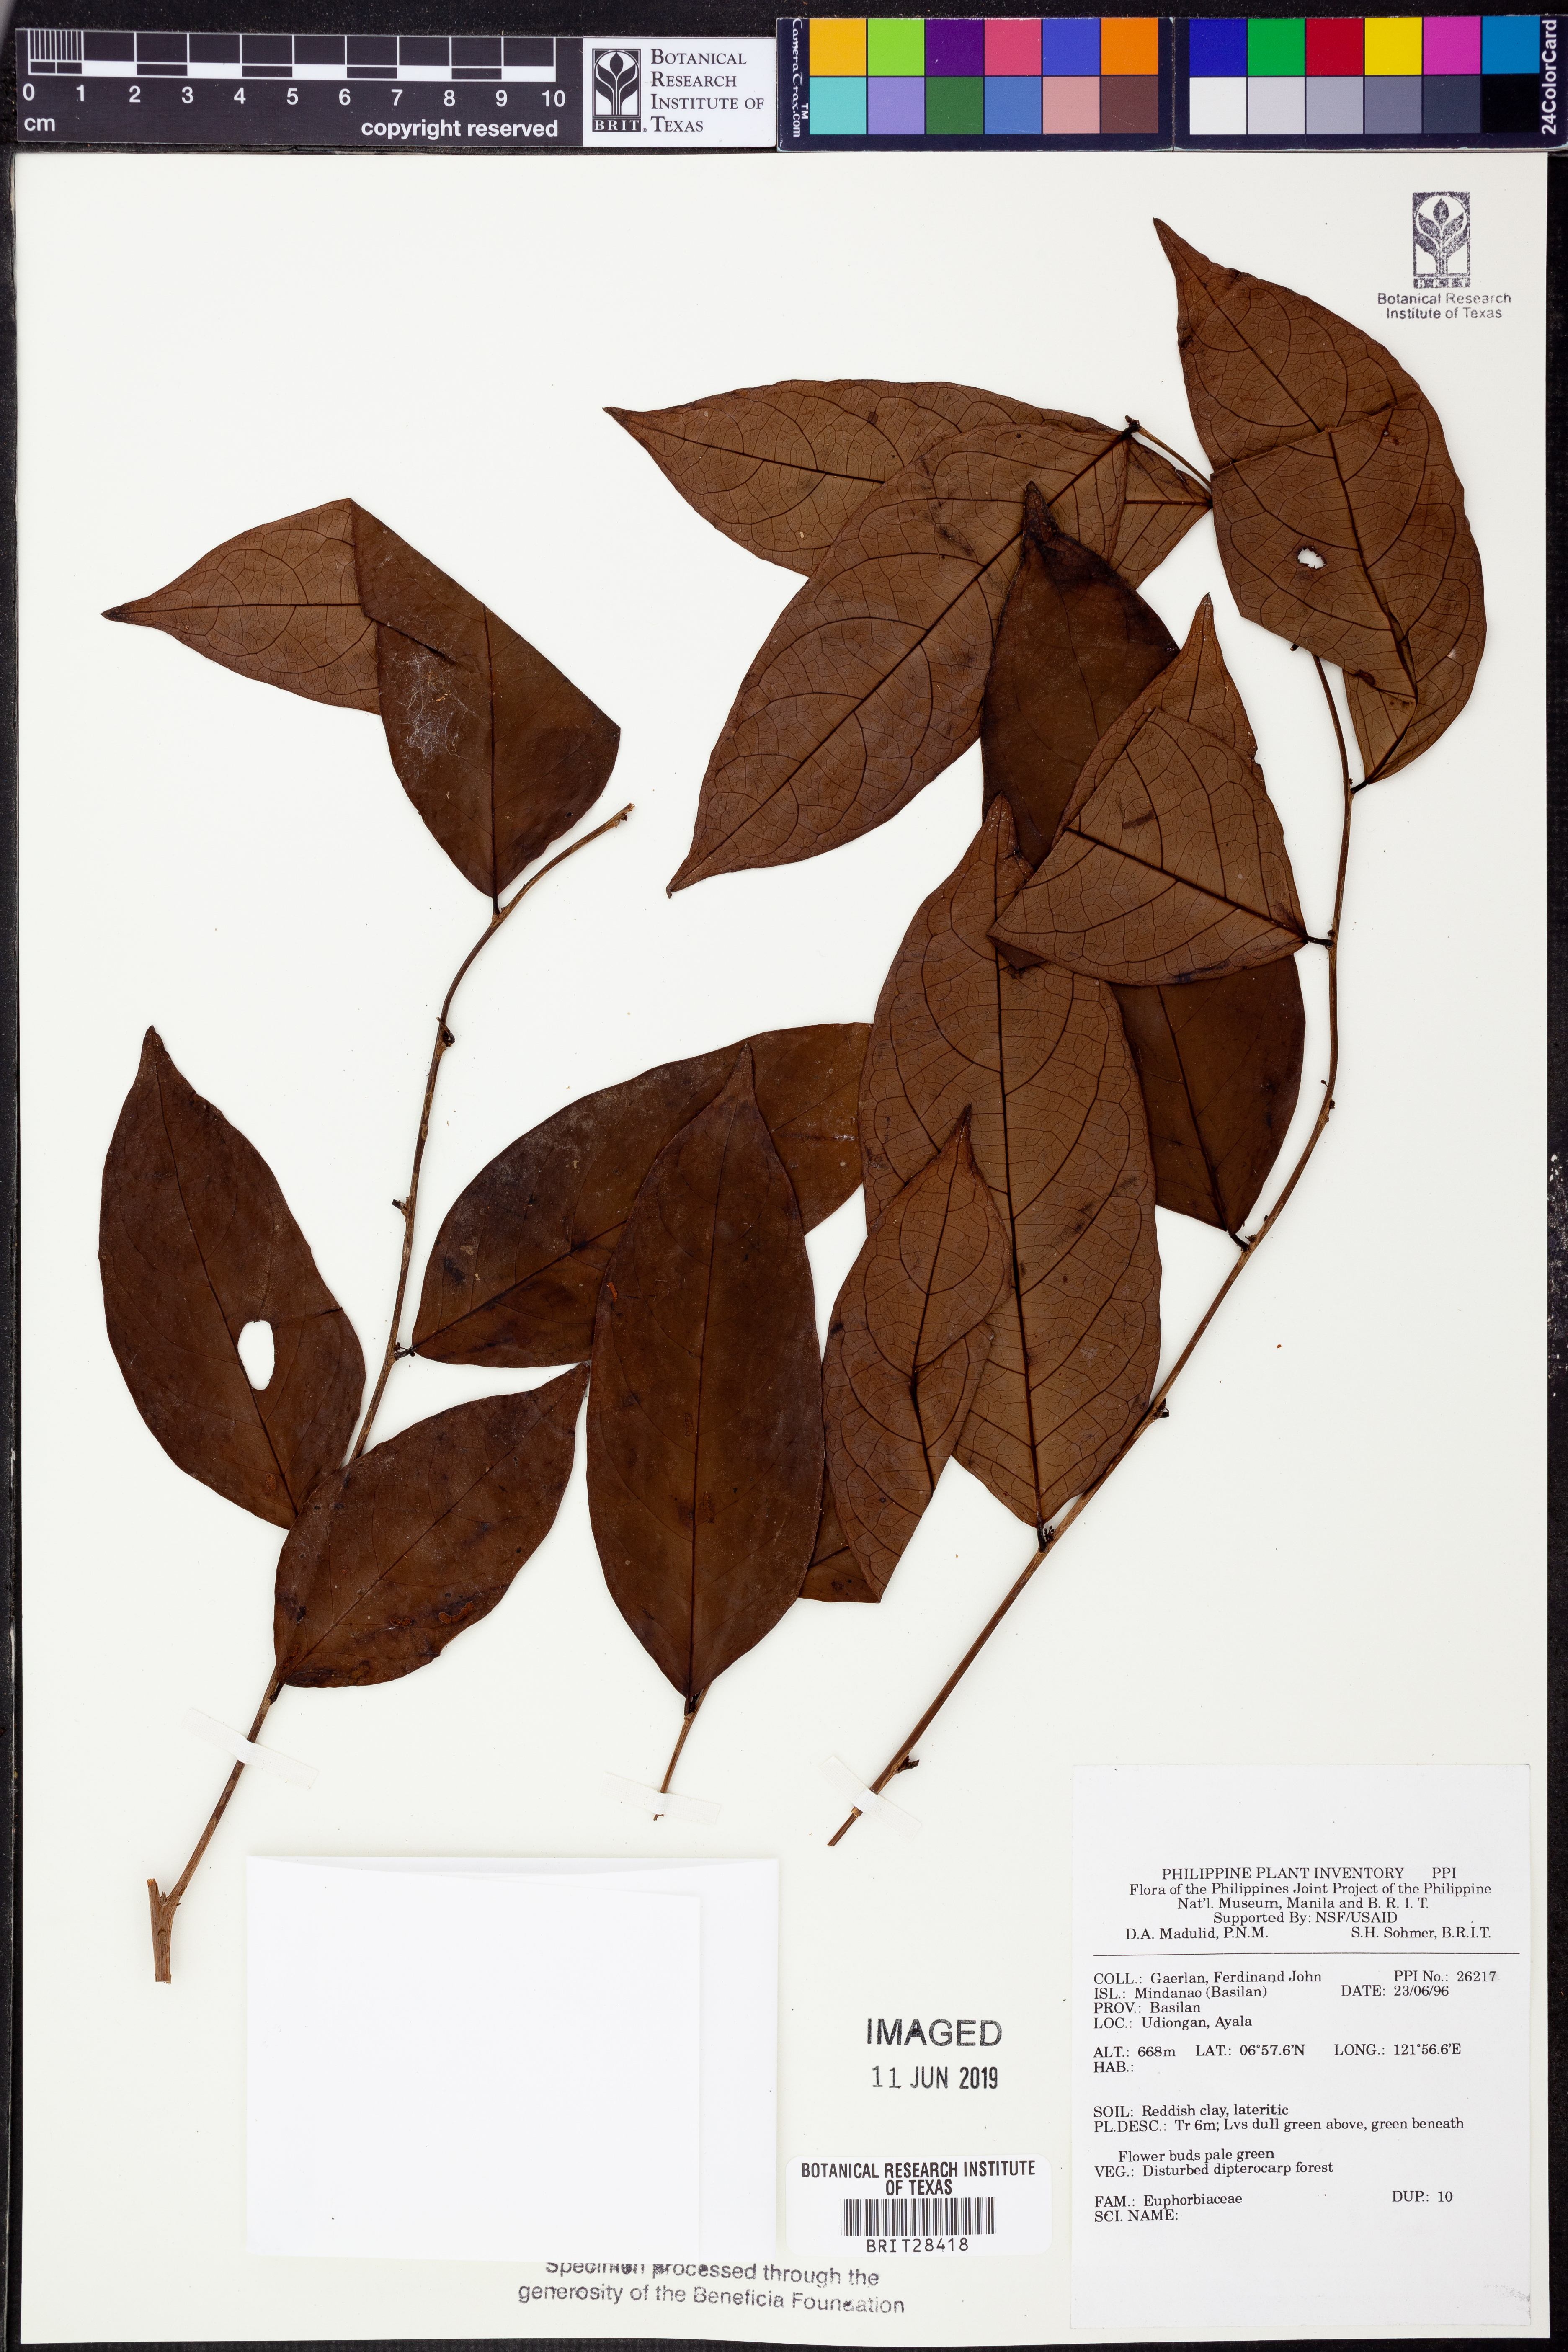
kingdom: Plantae
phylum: Tracheophyta
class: Magnoliopsida
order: Malpighiales
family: Euphorbiaceae
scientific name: Euphorbiaceae
